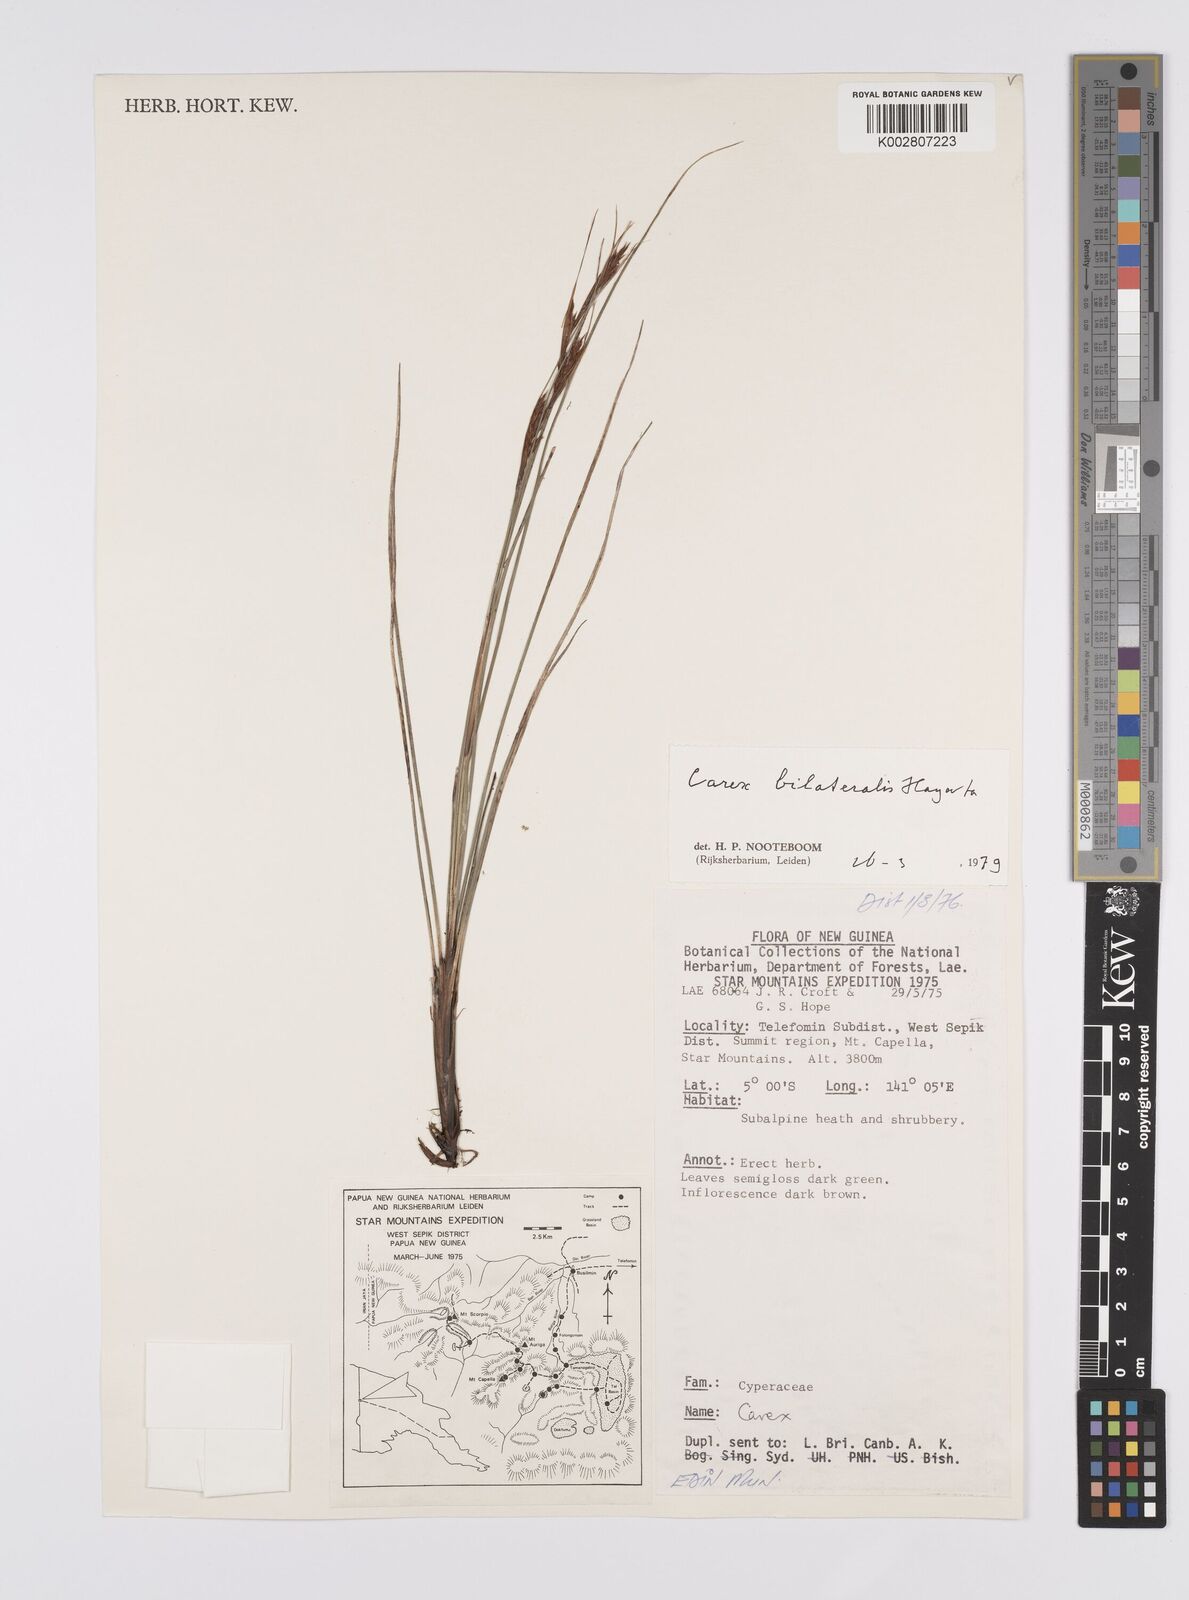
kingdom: Plantae
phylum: Tracheophyta
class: Liliopsida
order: Poales
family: Cyperaceae
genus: Carex
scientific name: Carex bilateralis
